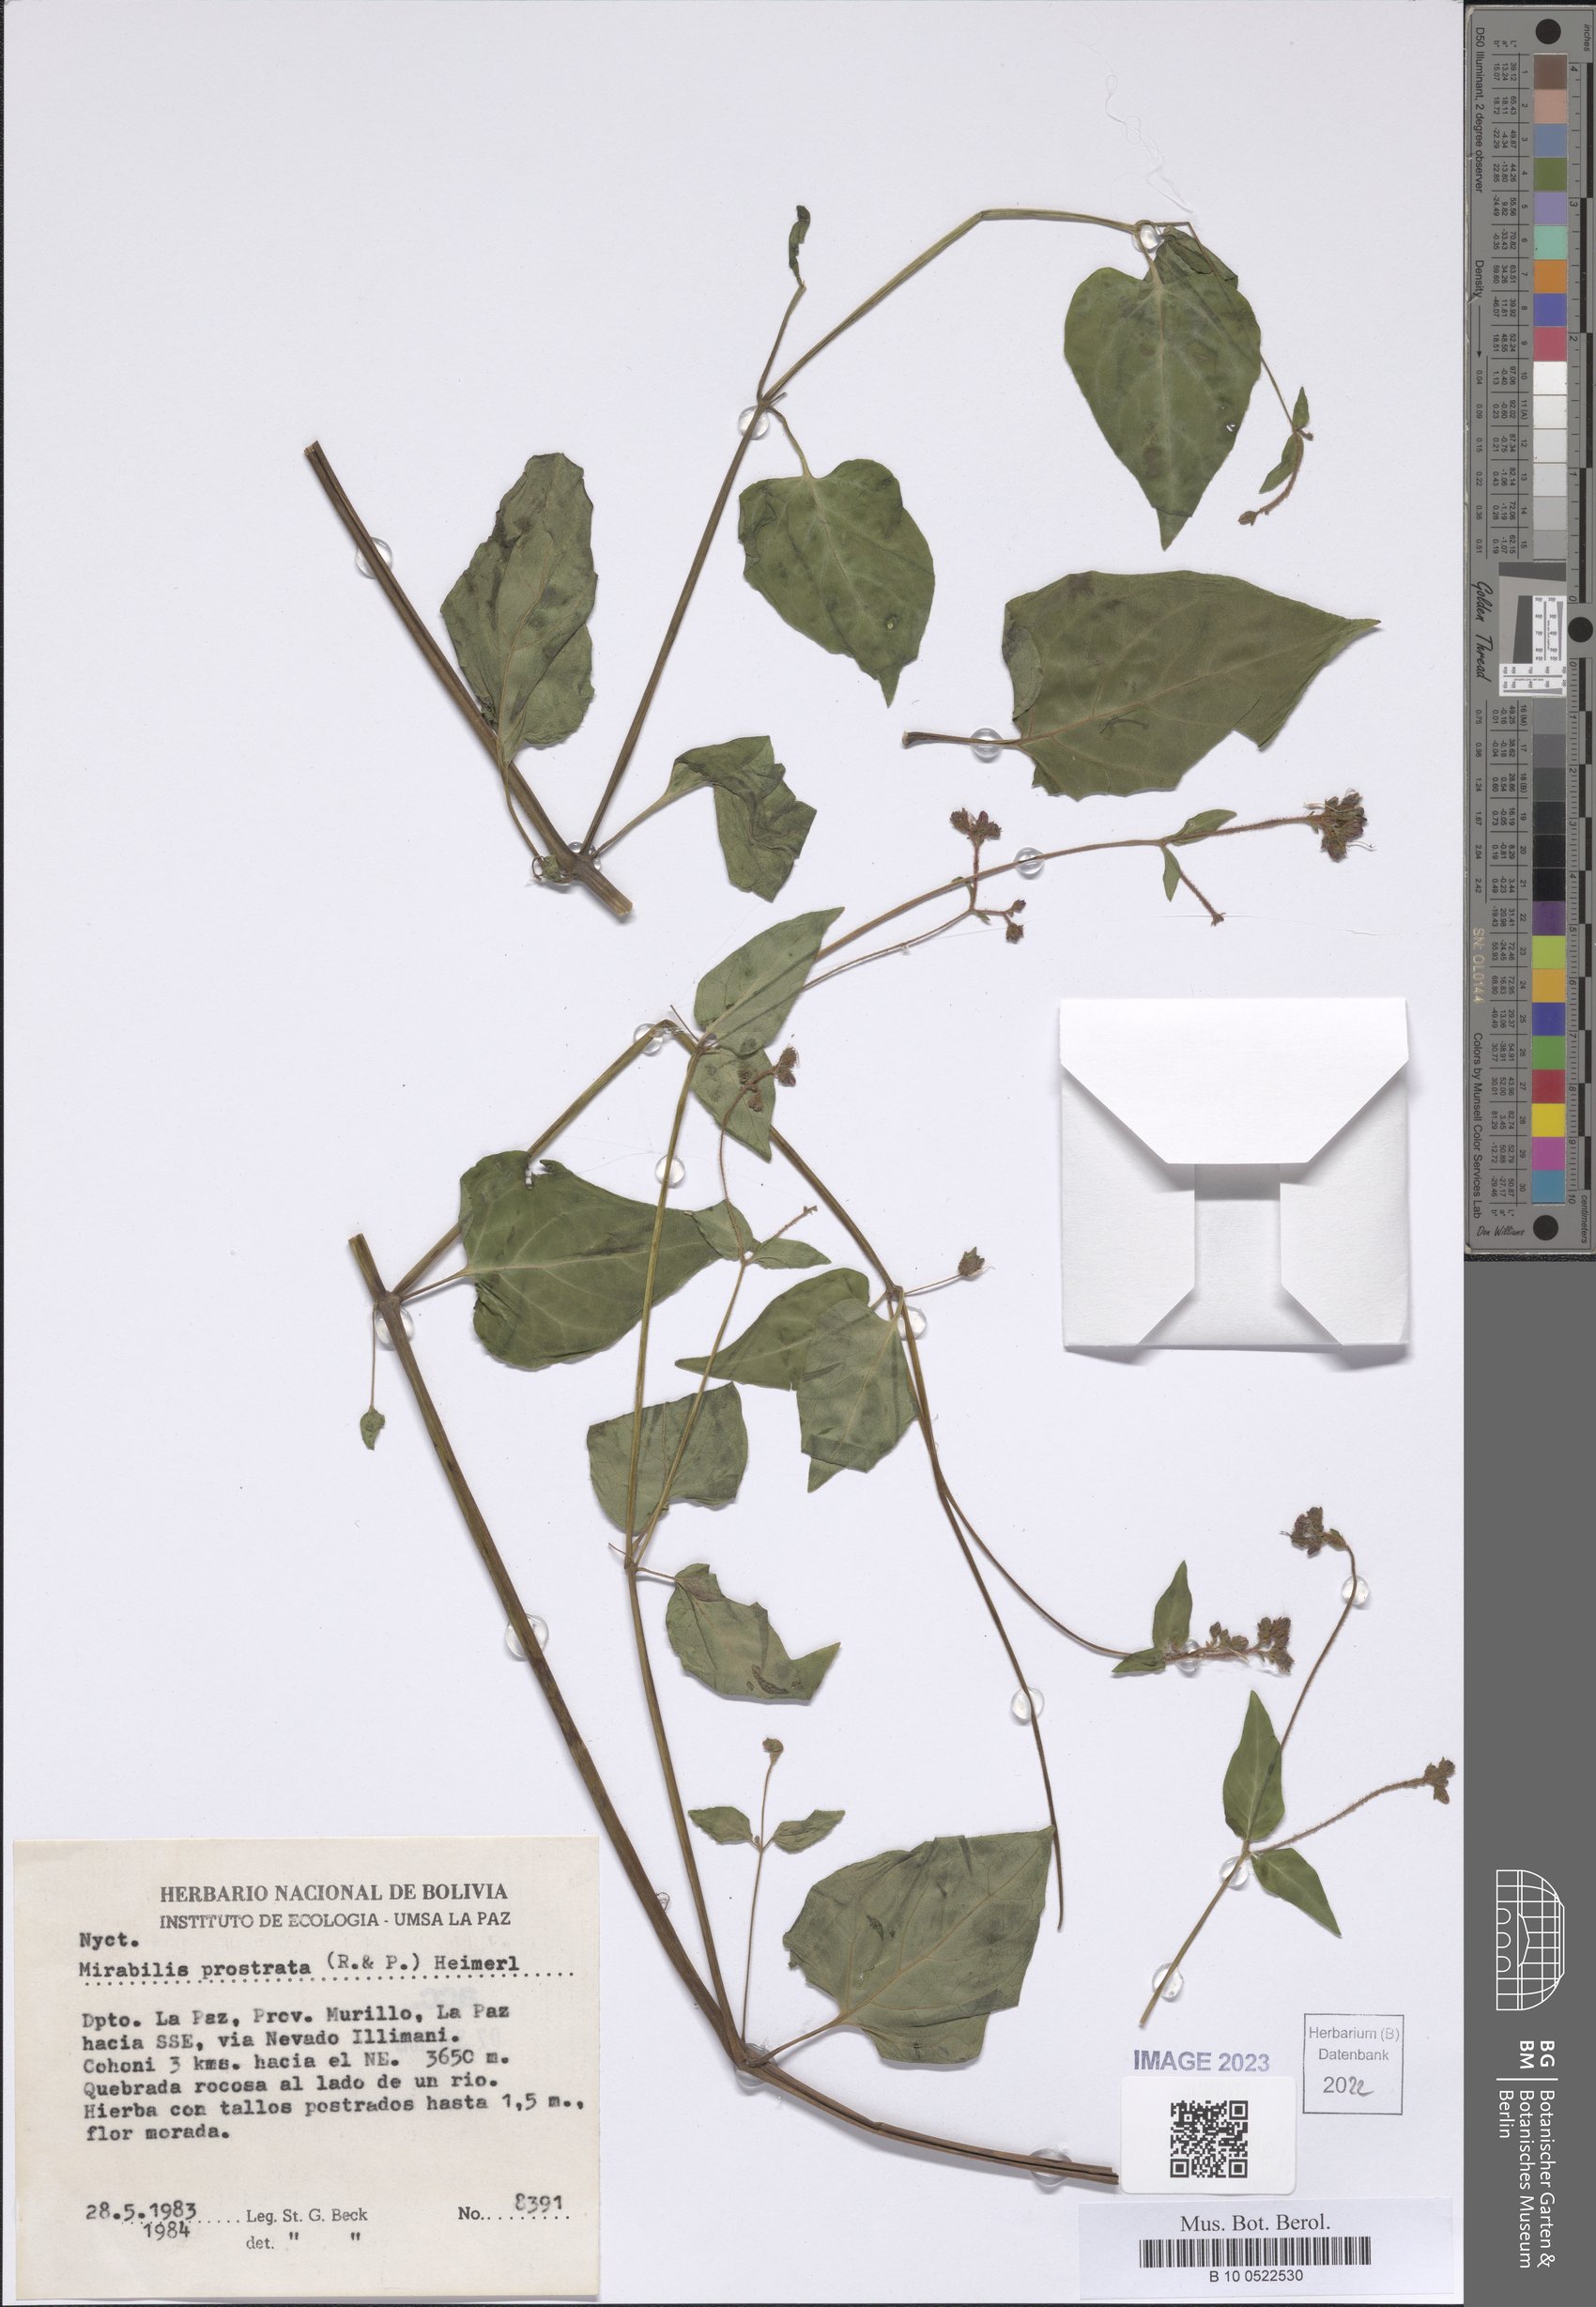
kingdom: Plantae
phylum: Tracheophyta
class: Magnoliopsida
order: Caryophyllales
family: Nyctaginaceae
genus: Mirabilis
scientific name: Mirabilis prostrata
